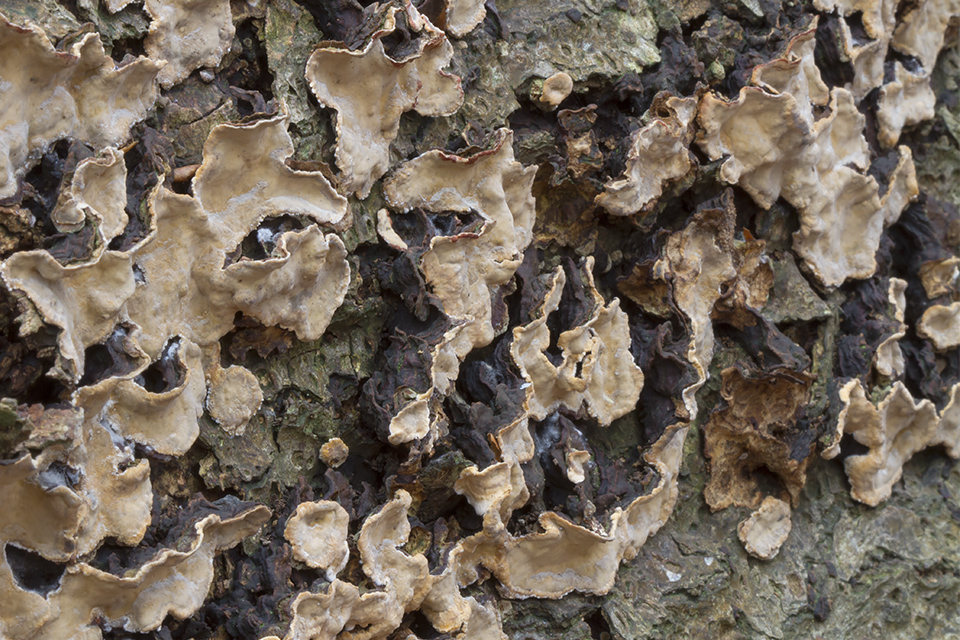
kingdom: Fungi
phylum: Basidiomycota
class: Agaricomycetes
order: Russulales
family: Stereaceae
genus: Stereum
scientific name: Stereum rugosum
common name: rynket lædersvamp
